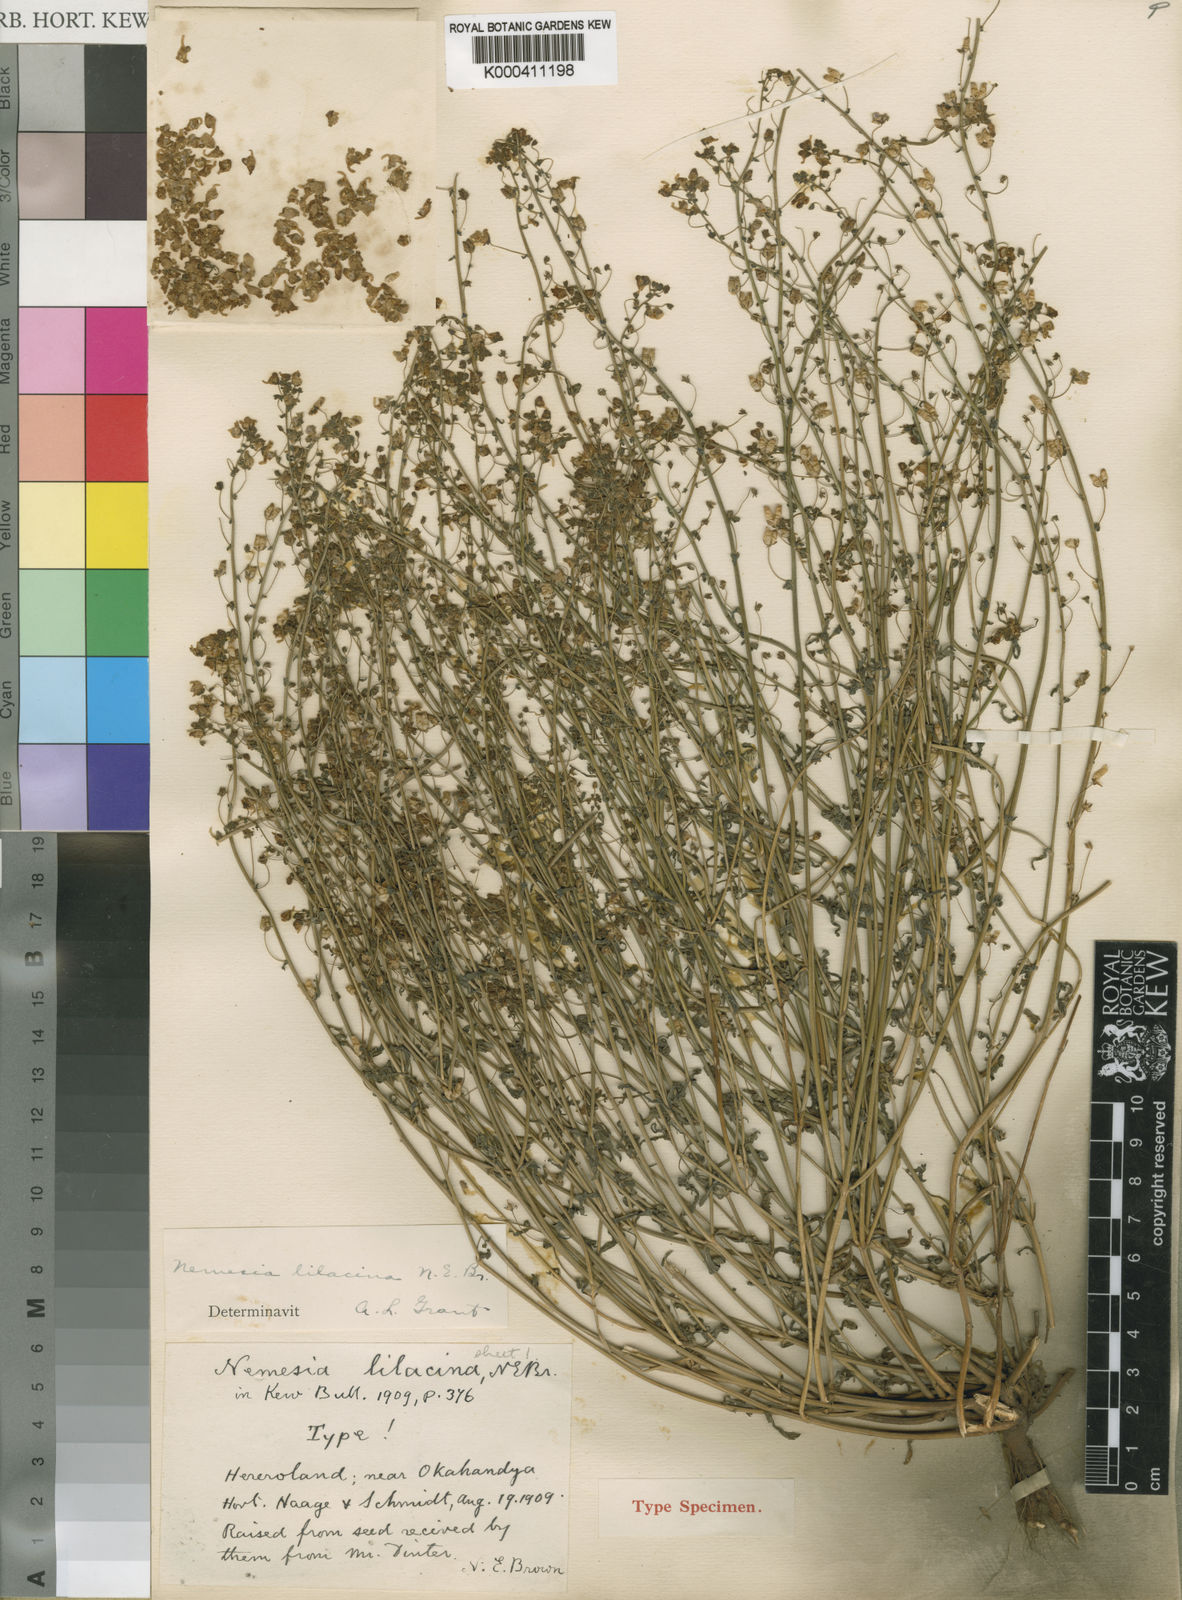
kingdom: Plantae
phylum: Tracheophyta
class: Magnoliopsida
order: Lamiales
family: Scrophulariaceae
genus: Nemesia
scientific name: Nemesia lilacina
